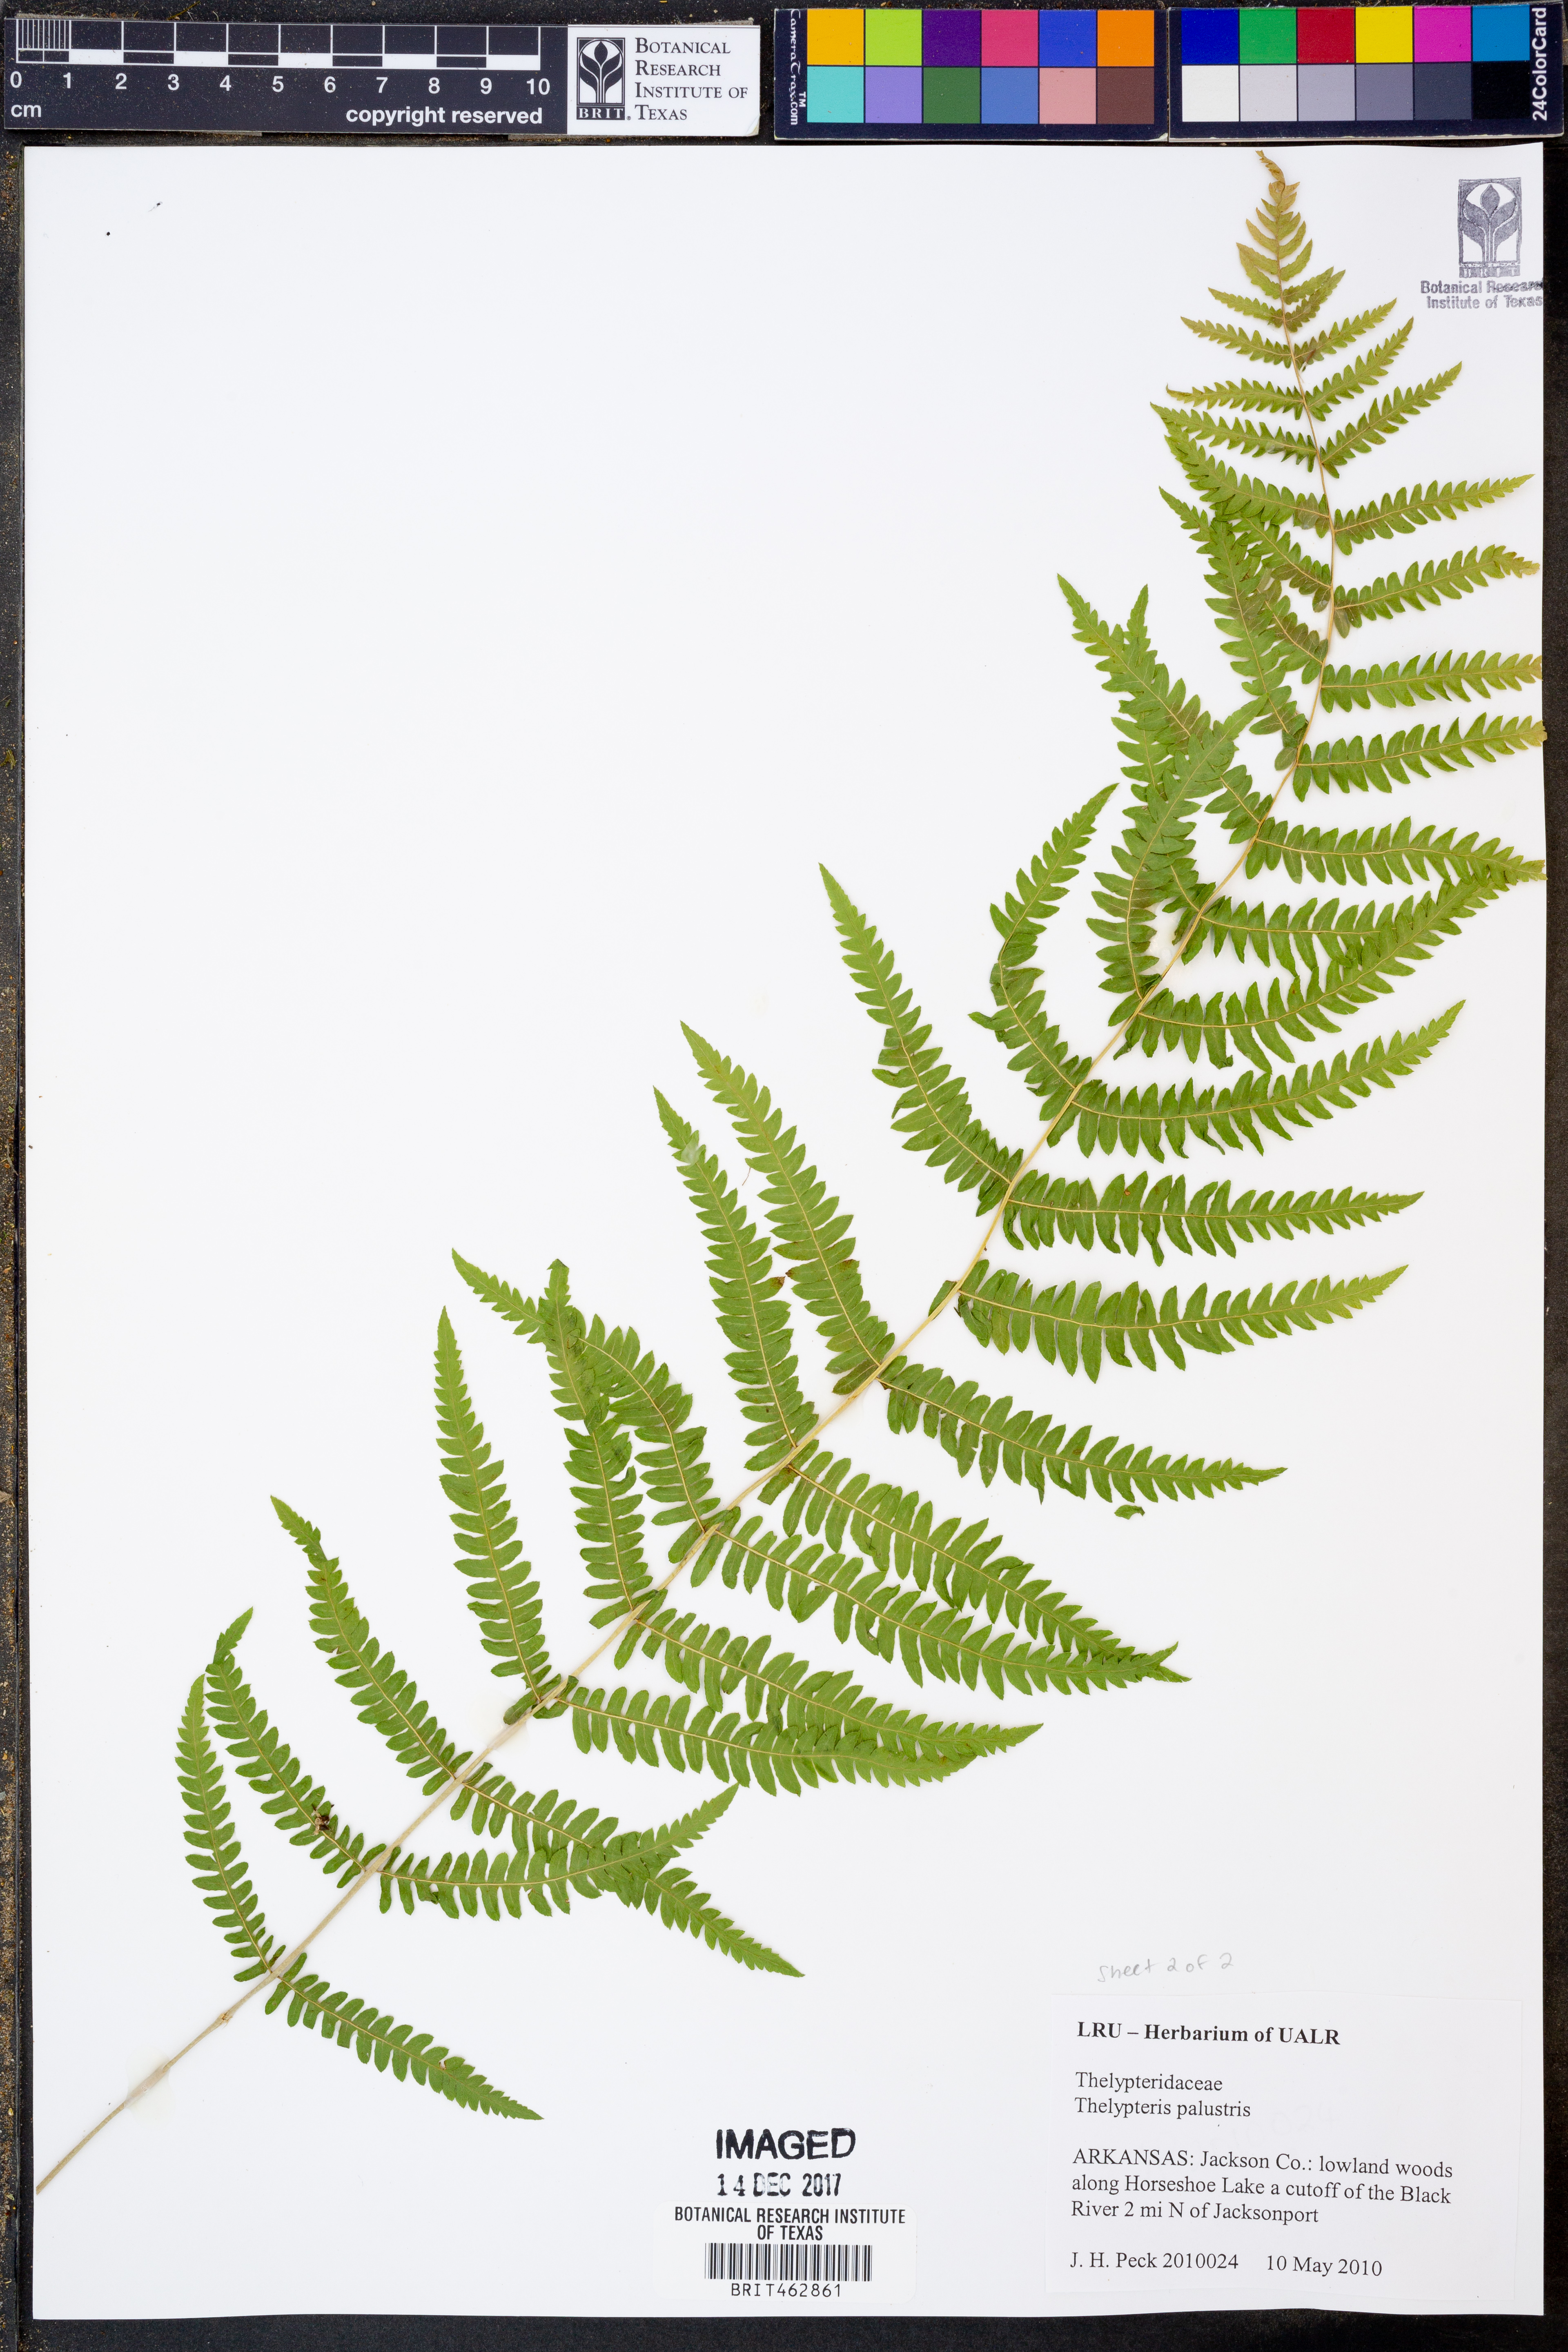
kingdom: Plantae
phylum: Tracheophyta
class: Polypodiopsida
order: Polypodiales
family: Thelypteridaceae
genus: Thelypteris
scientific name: Thelypteris palustris
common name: Marsh fern
